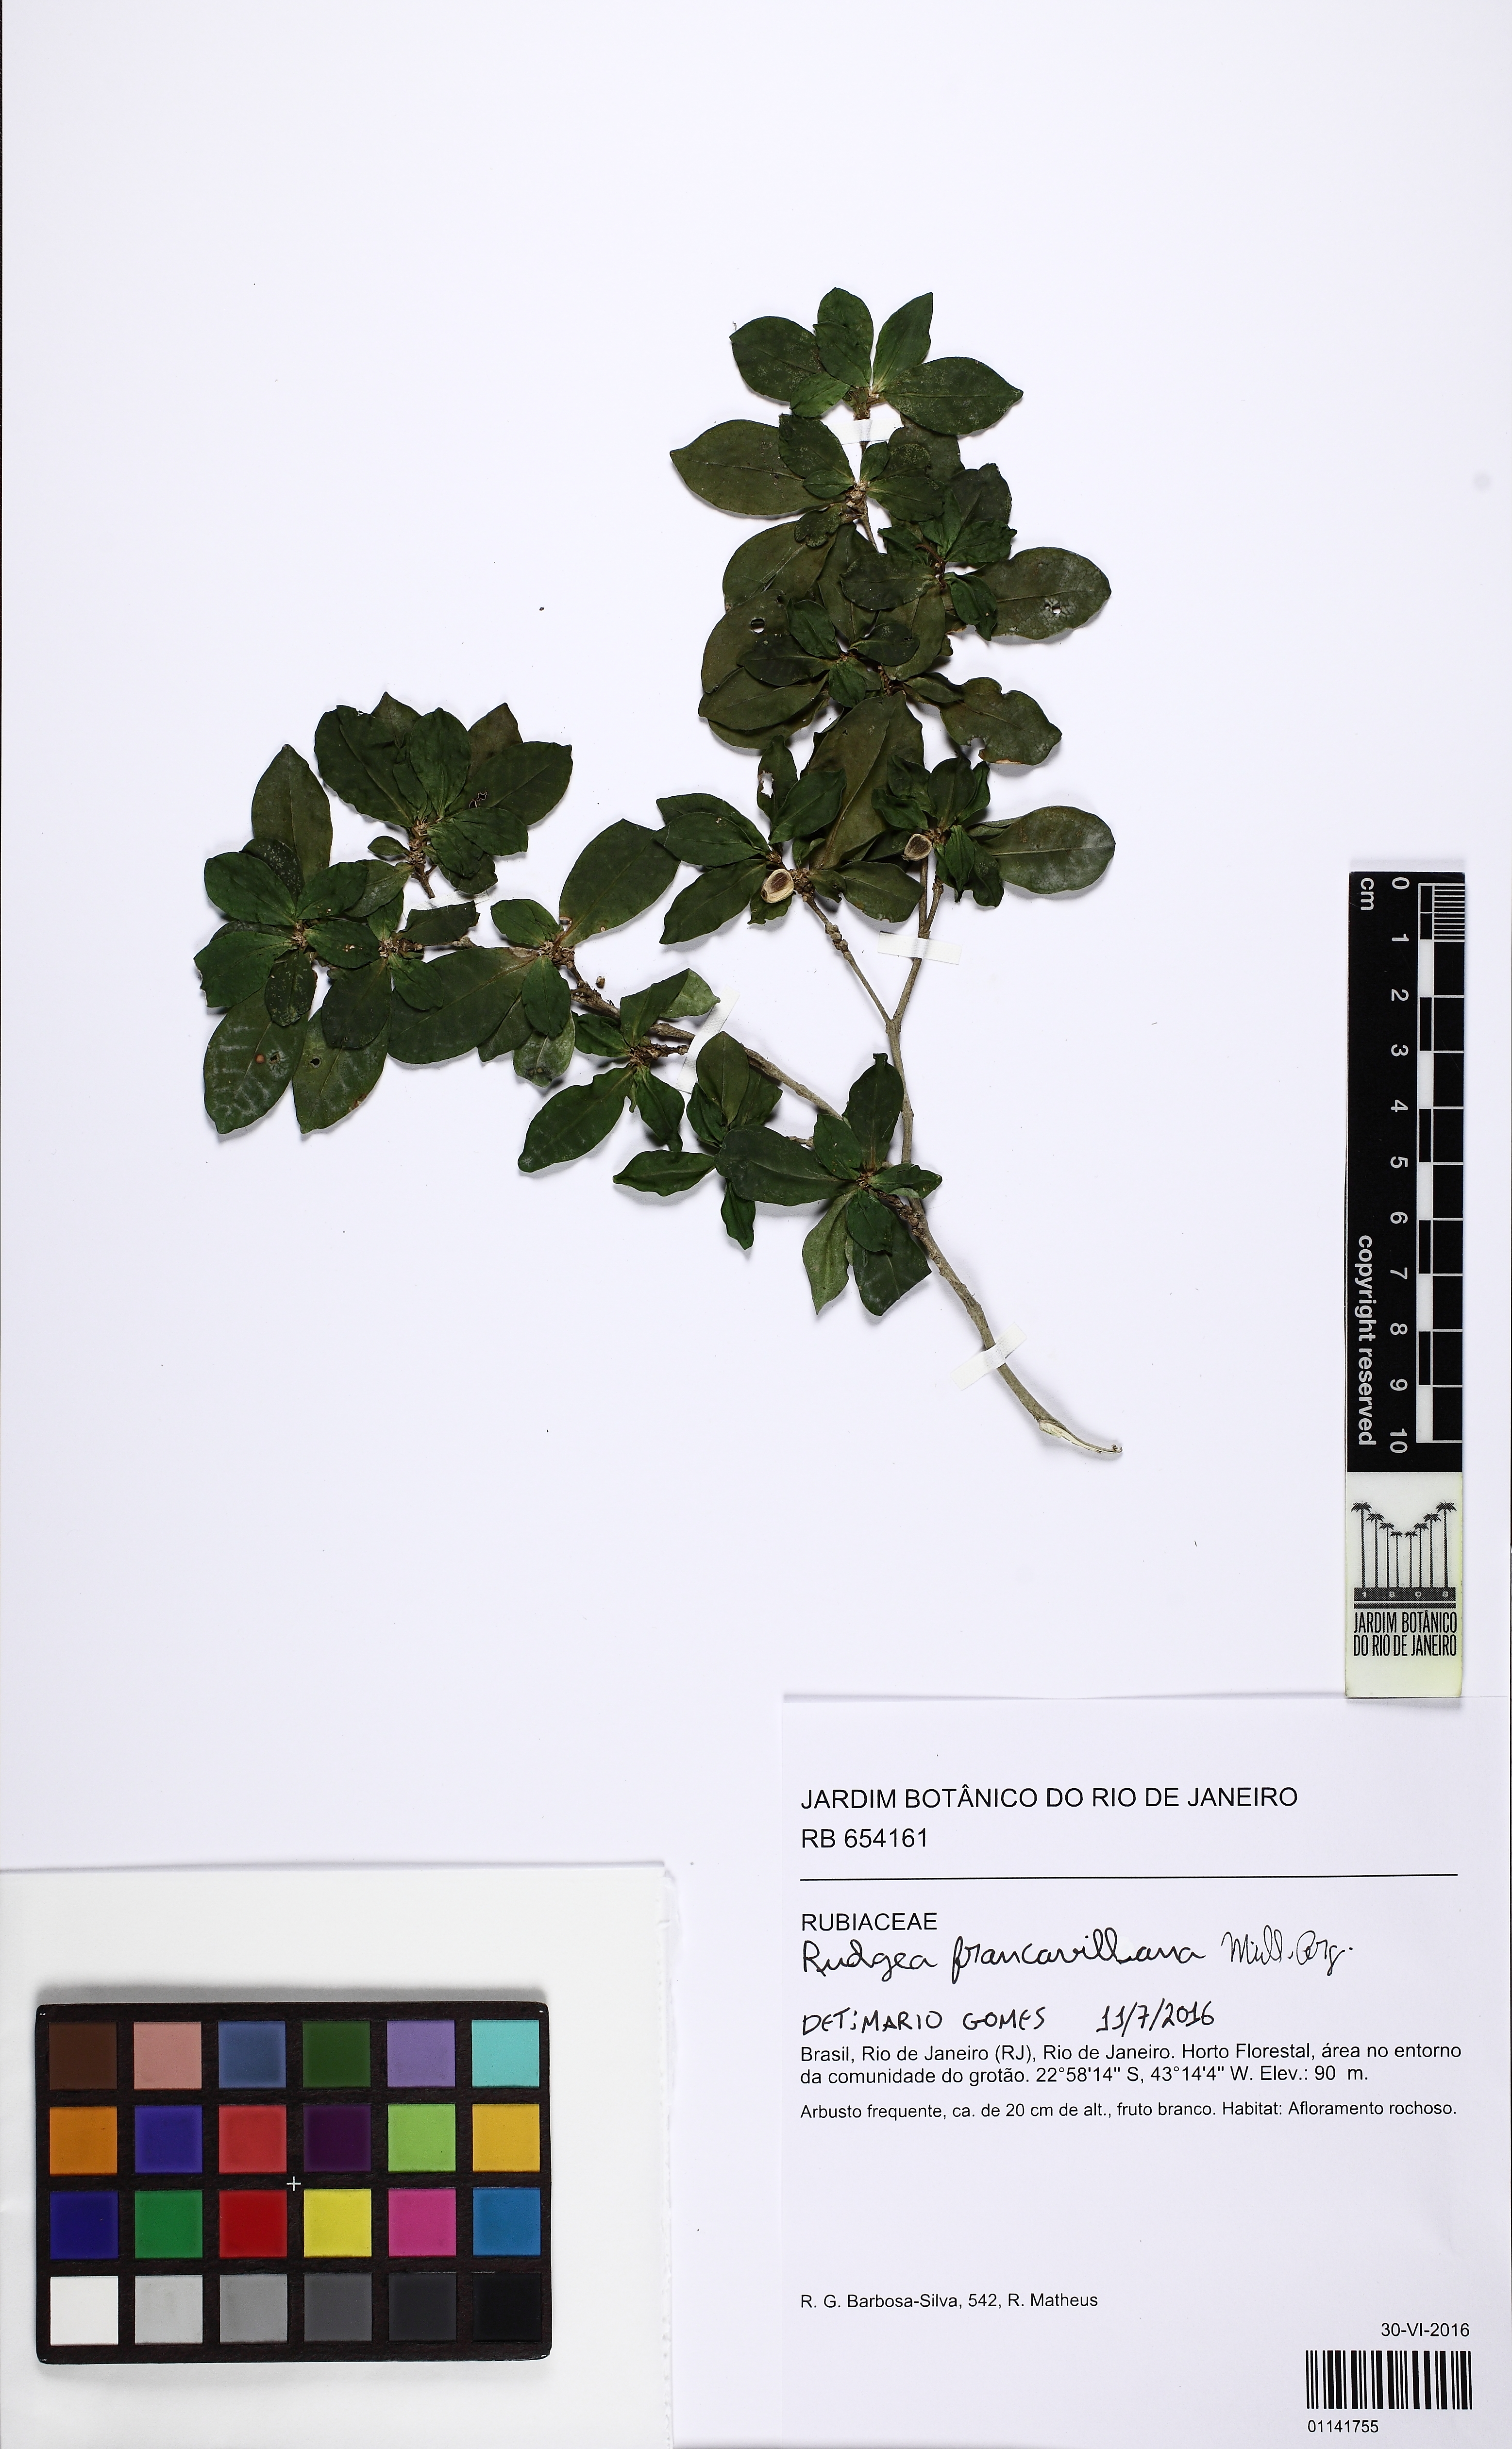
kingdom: Plantae
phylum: Tracheophyta
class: Magnoliopsida
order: Gentianales
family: Rubiaceae
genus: Rudgea
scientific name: Rudgea francavillana
